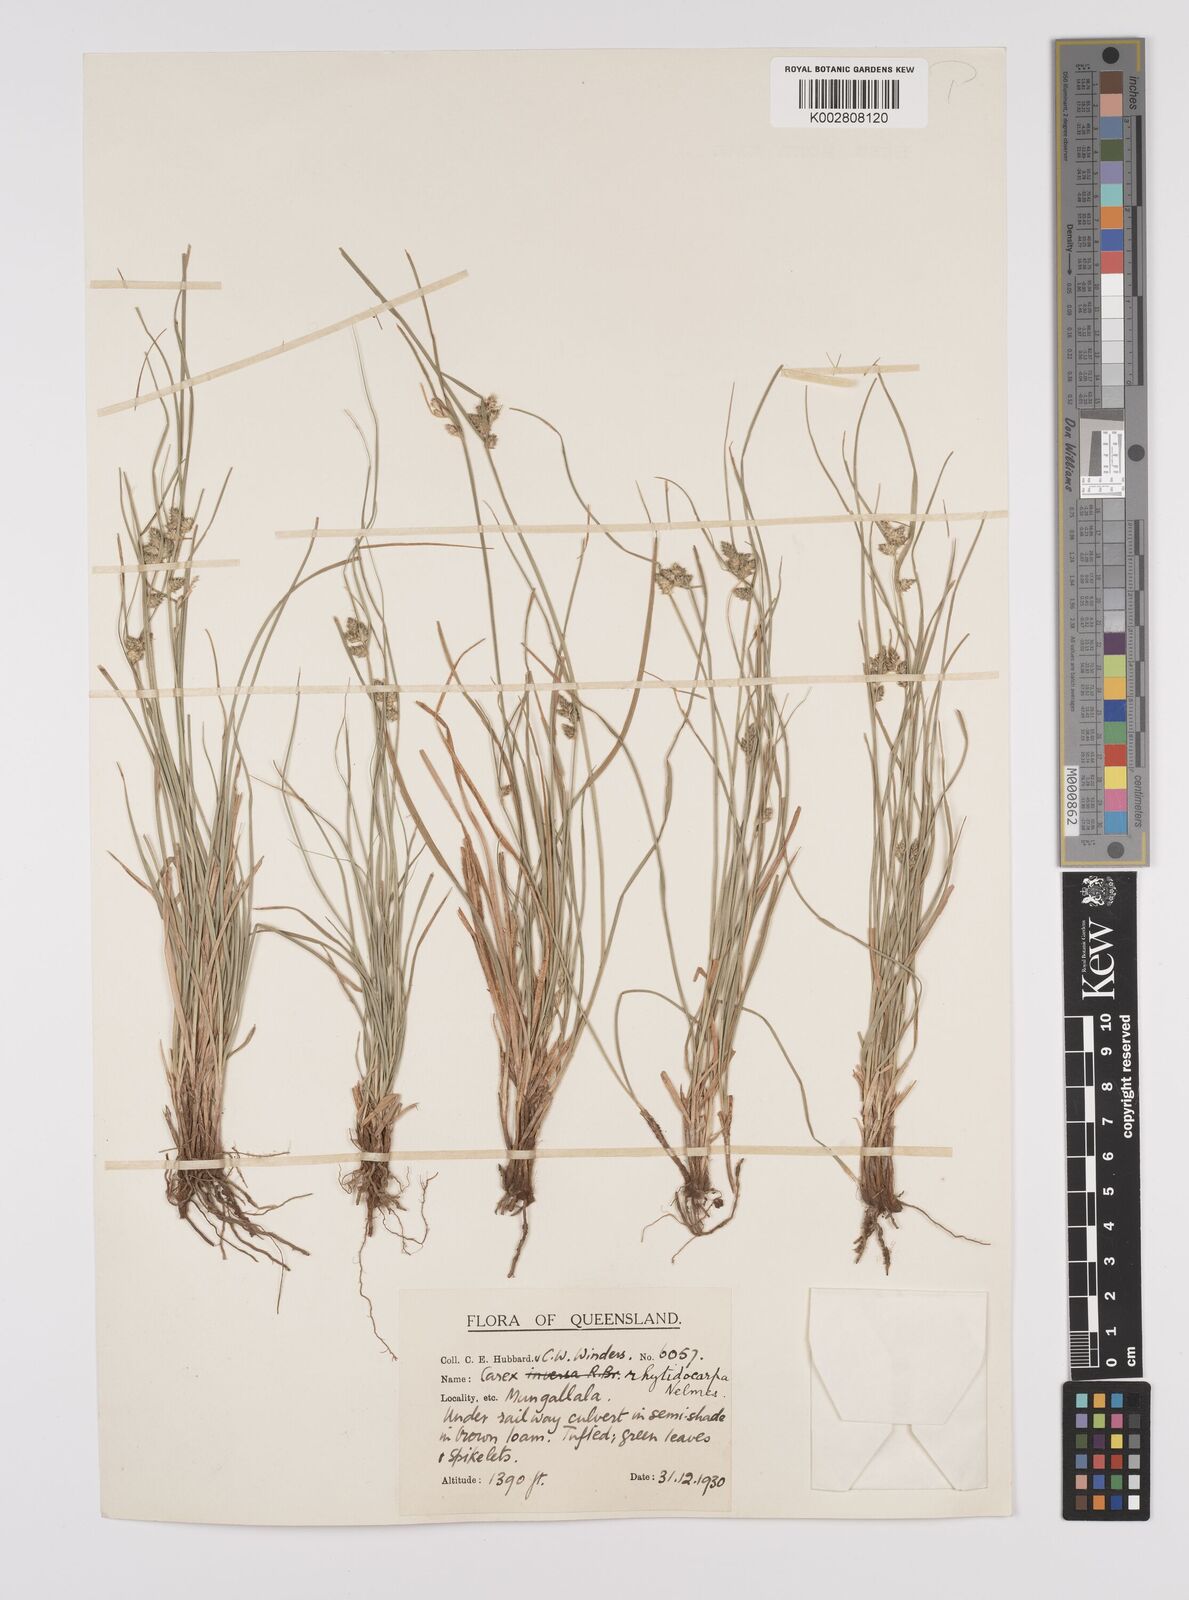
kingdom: Plantae
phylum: Tracheophyta
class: Liliopsida
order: Poales
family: Cyperaceae
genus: Carex
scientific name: Carex inversa
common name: Knob sedge
